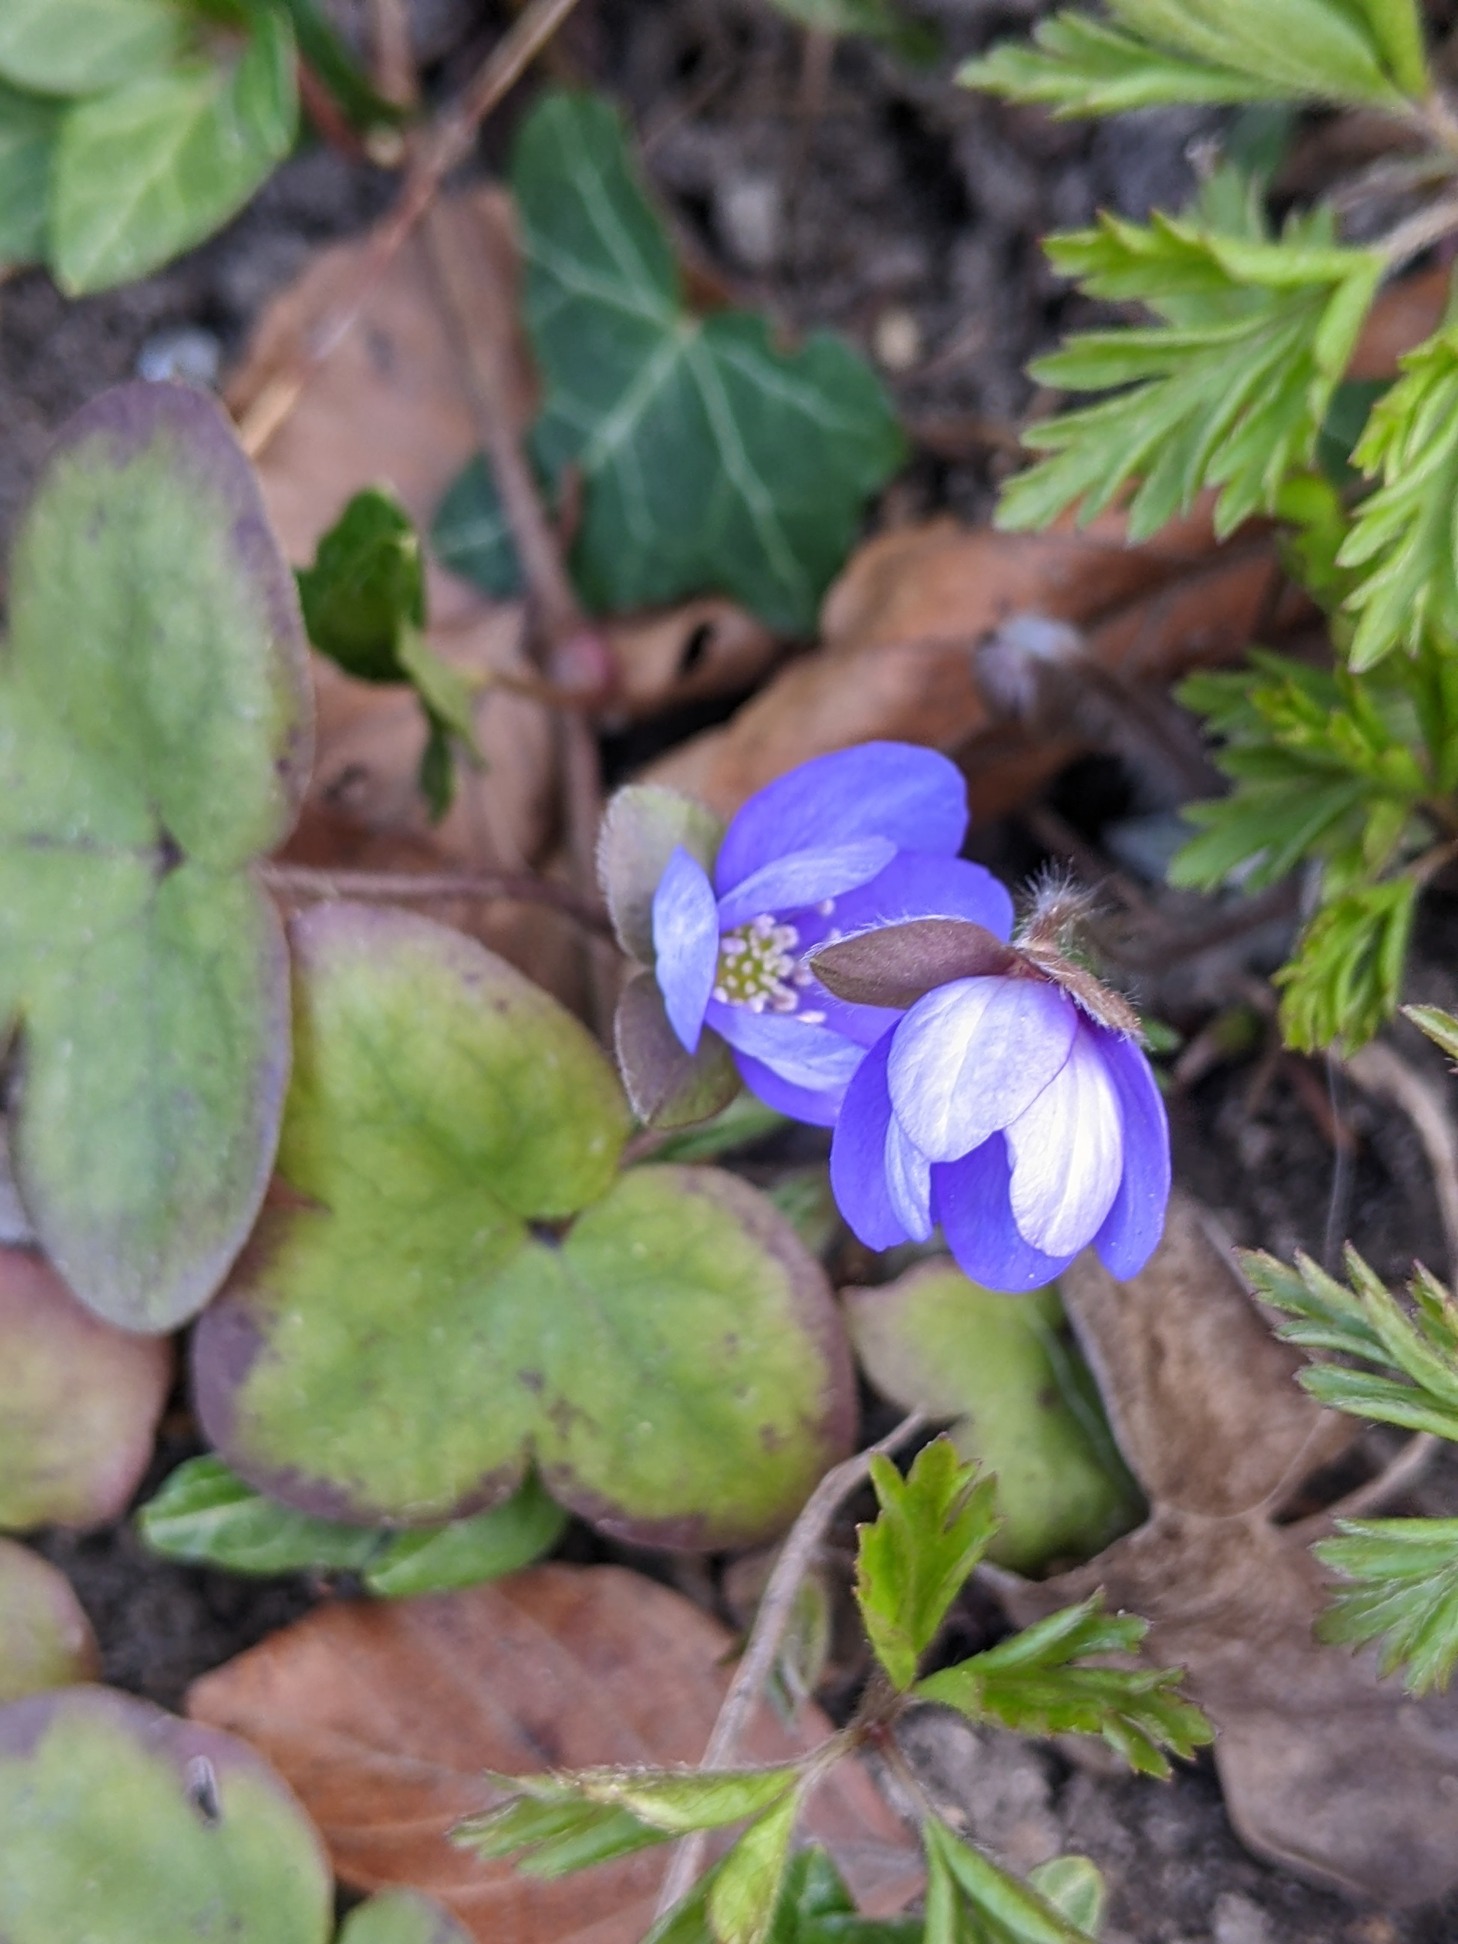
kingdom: Plantae
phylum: Tracheophyta
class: Magnoliopsida
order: Ranunculales
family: Ranunculaceae
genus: Hepatica
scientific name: Hepatica nobilis
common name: Blå anemone
